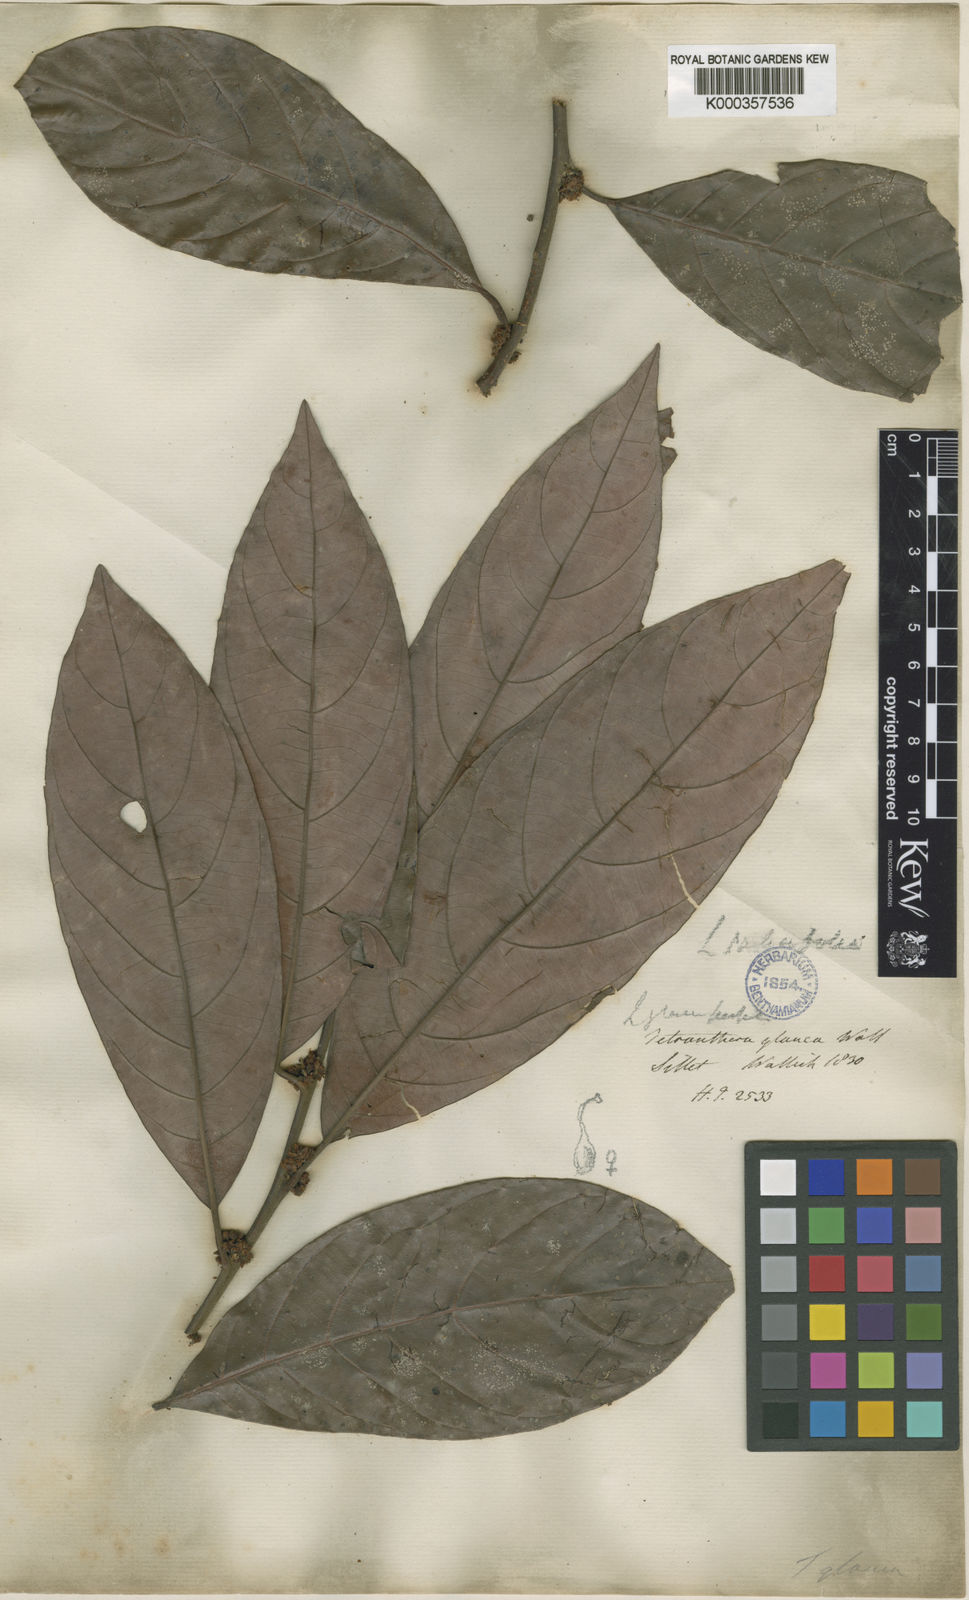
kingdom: Plantae
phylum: Tracheophyta
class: Magnoliopsida
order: Laurales
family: Lauraceae
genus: Litsea
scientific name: Litsea albescens
